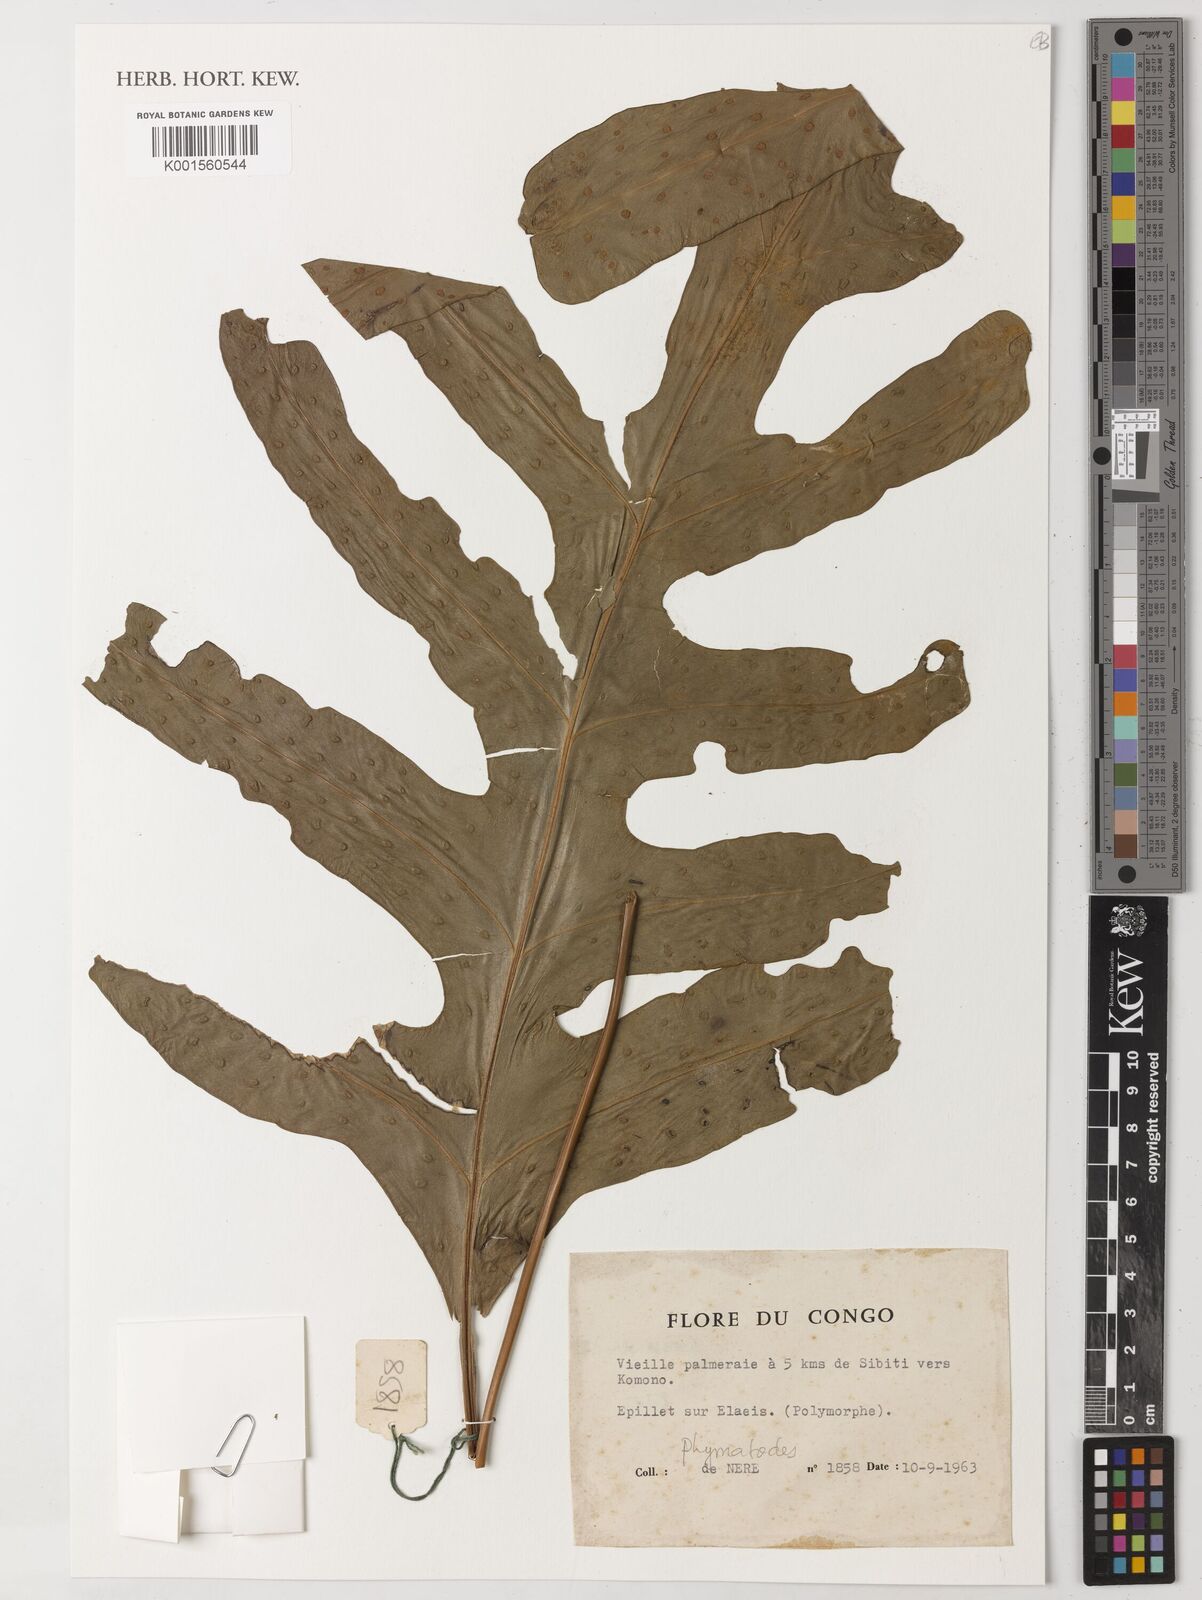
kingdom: Animalia
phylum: Arthropoda
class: Insecta
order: Coleoptera
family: Cerambycidae
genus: Phymatodes
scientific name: Phymatodes
